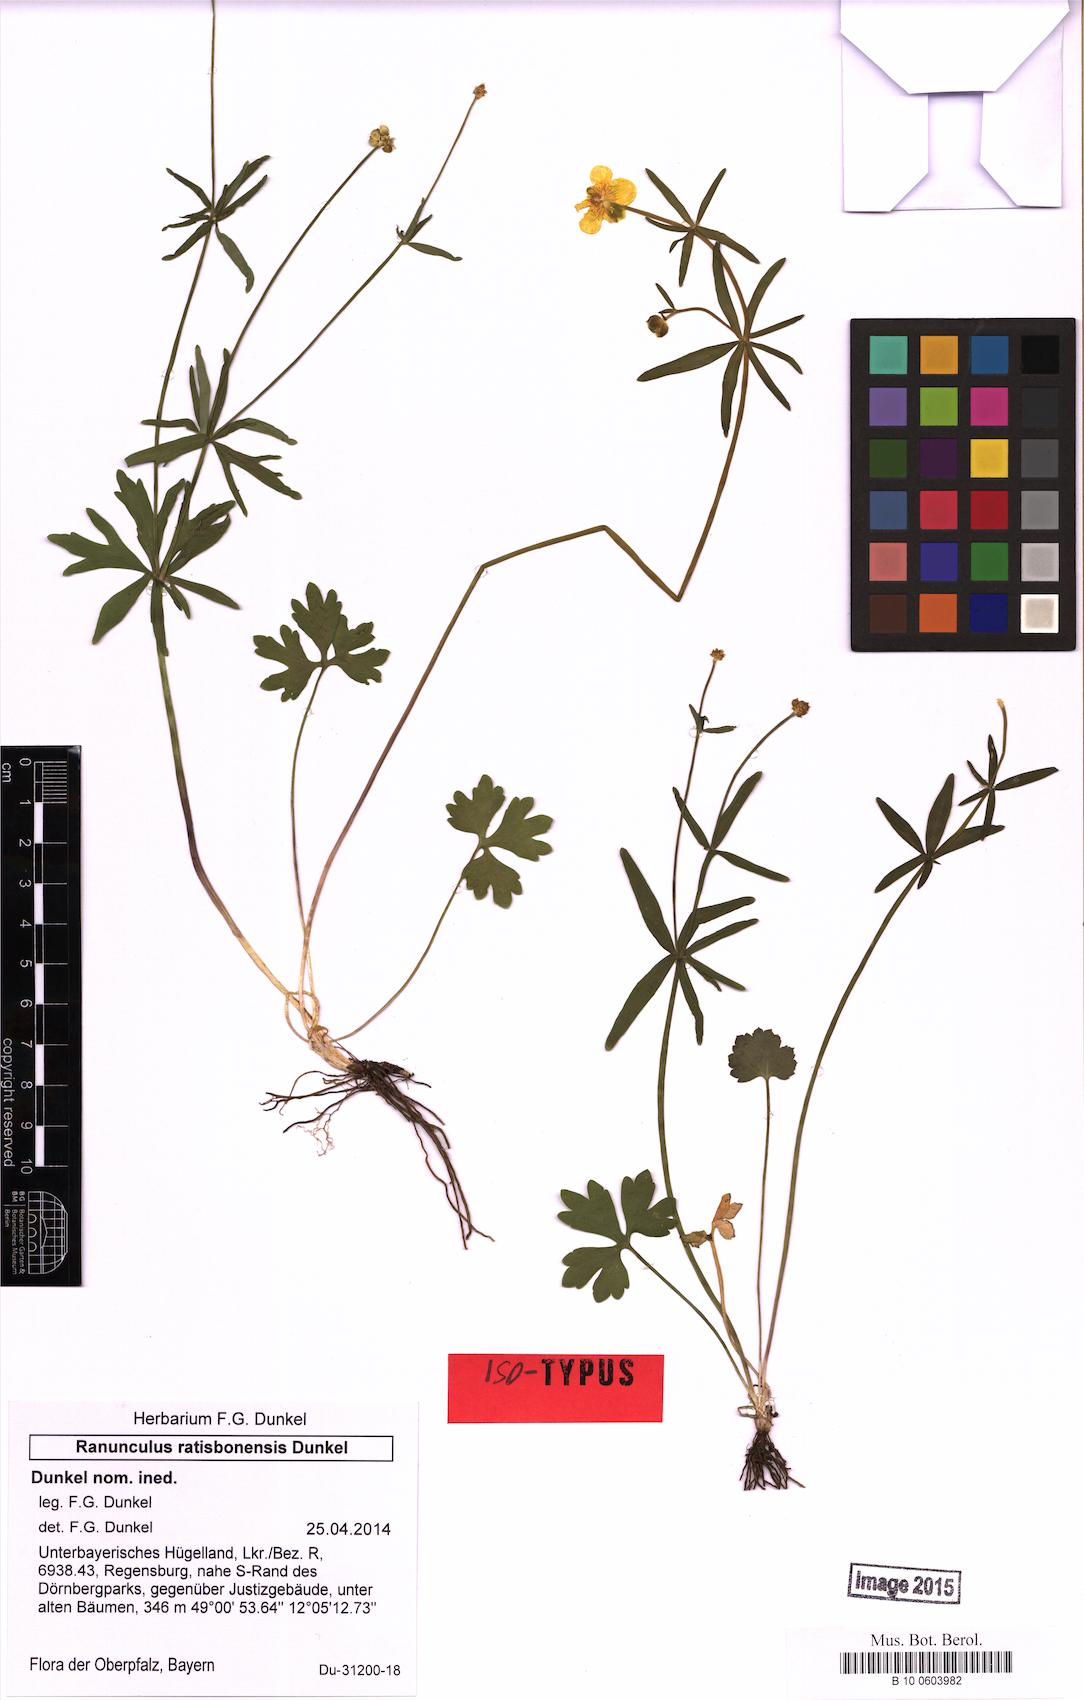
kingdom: Plantae
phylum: Tracheophyta
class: Magnoliopsida
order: Ranunculales
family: Ranunculaceae
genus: Ranunculus
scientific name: Ranunculus ratisbonensis
